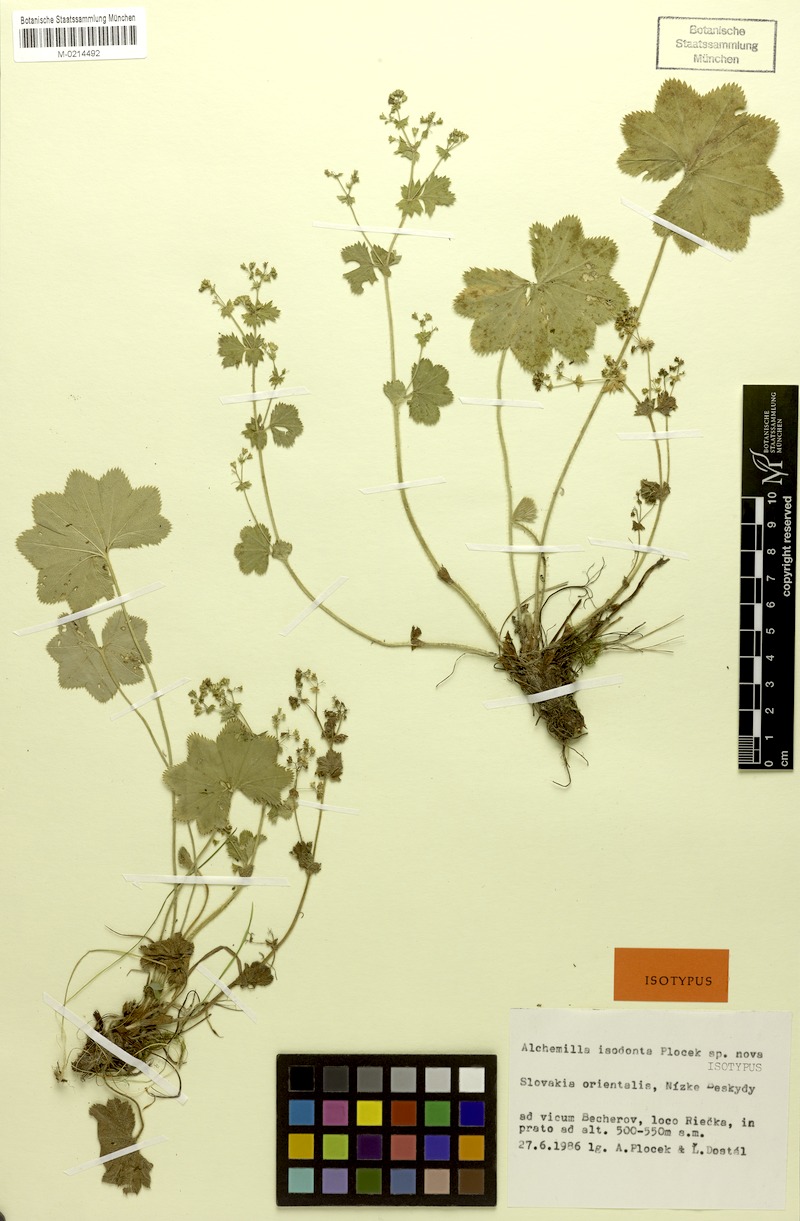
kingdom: Plantae
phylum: Tracheophyta
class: Magnoliopsida
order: Rosales
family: Rosaceae
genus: Alchemilla
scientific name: Alchemilla isodonta
